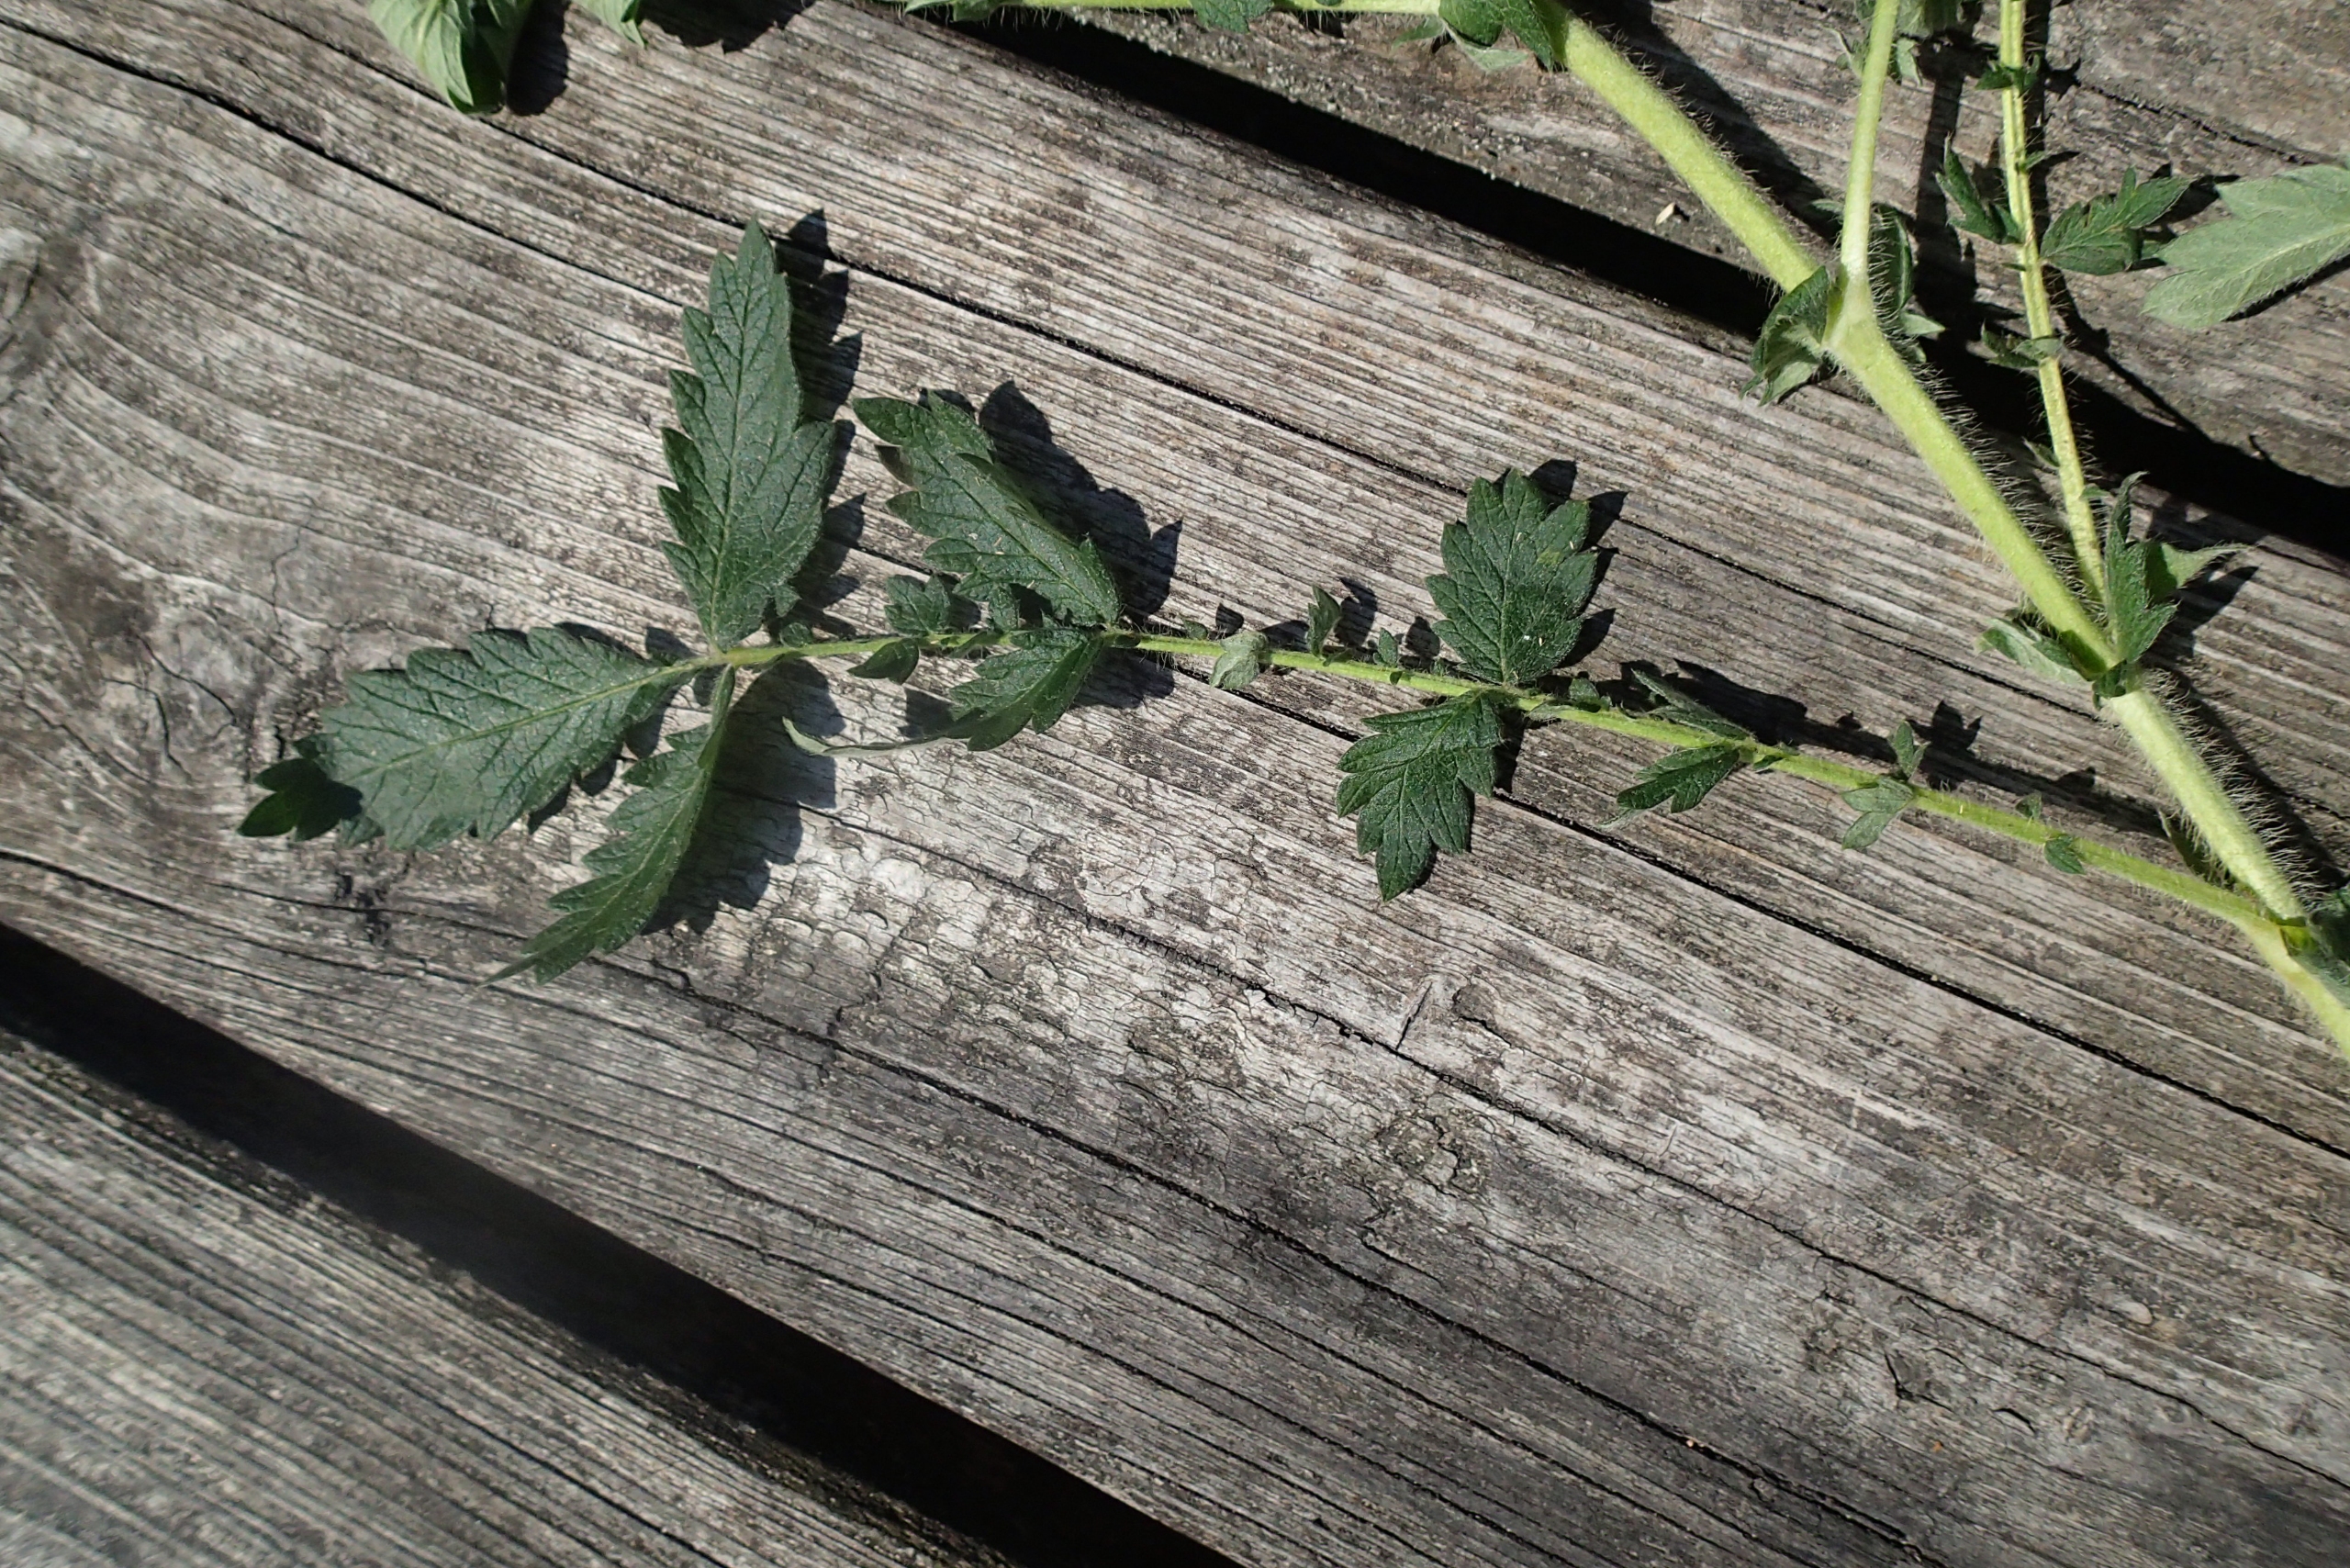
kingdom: Plantae
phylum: Tracheophyta
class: Magnoliopsida
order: Rosales
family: Rosaceae
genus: Agrimonia
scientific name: Agrimonia eupatoria
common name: Almindelig agermåne
